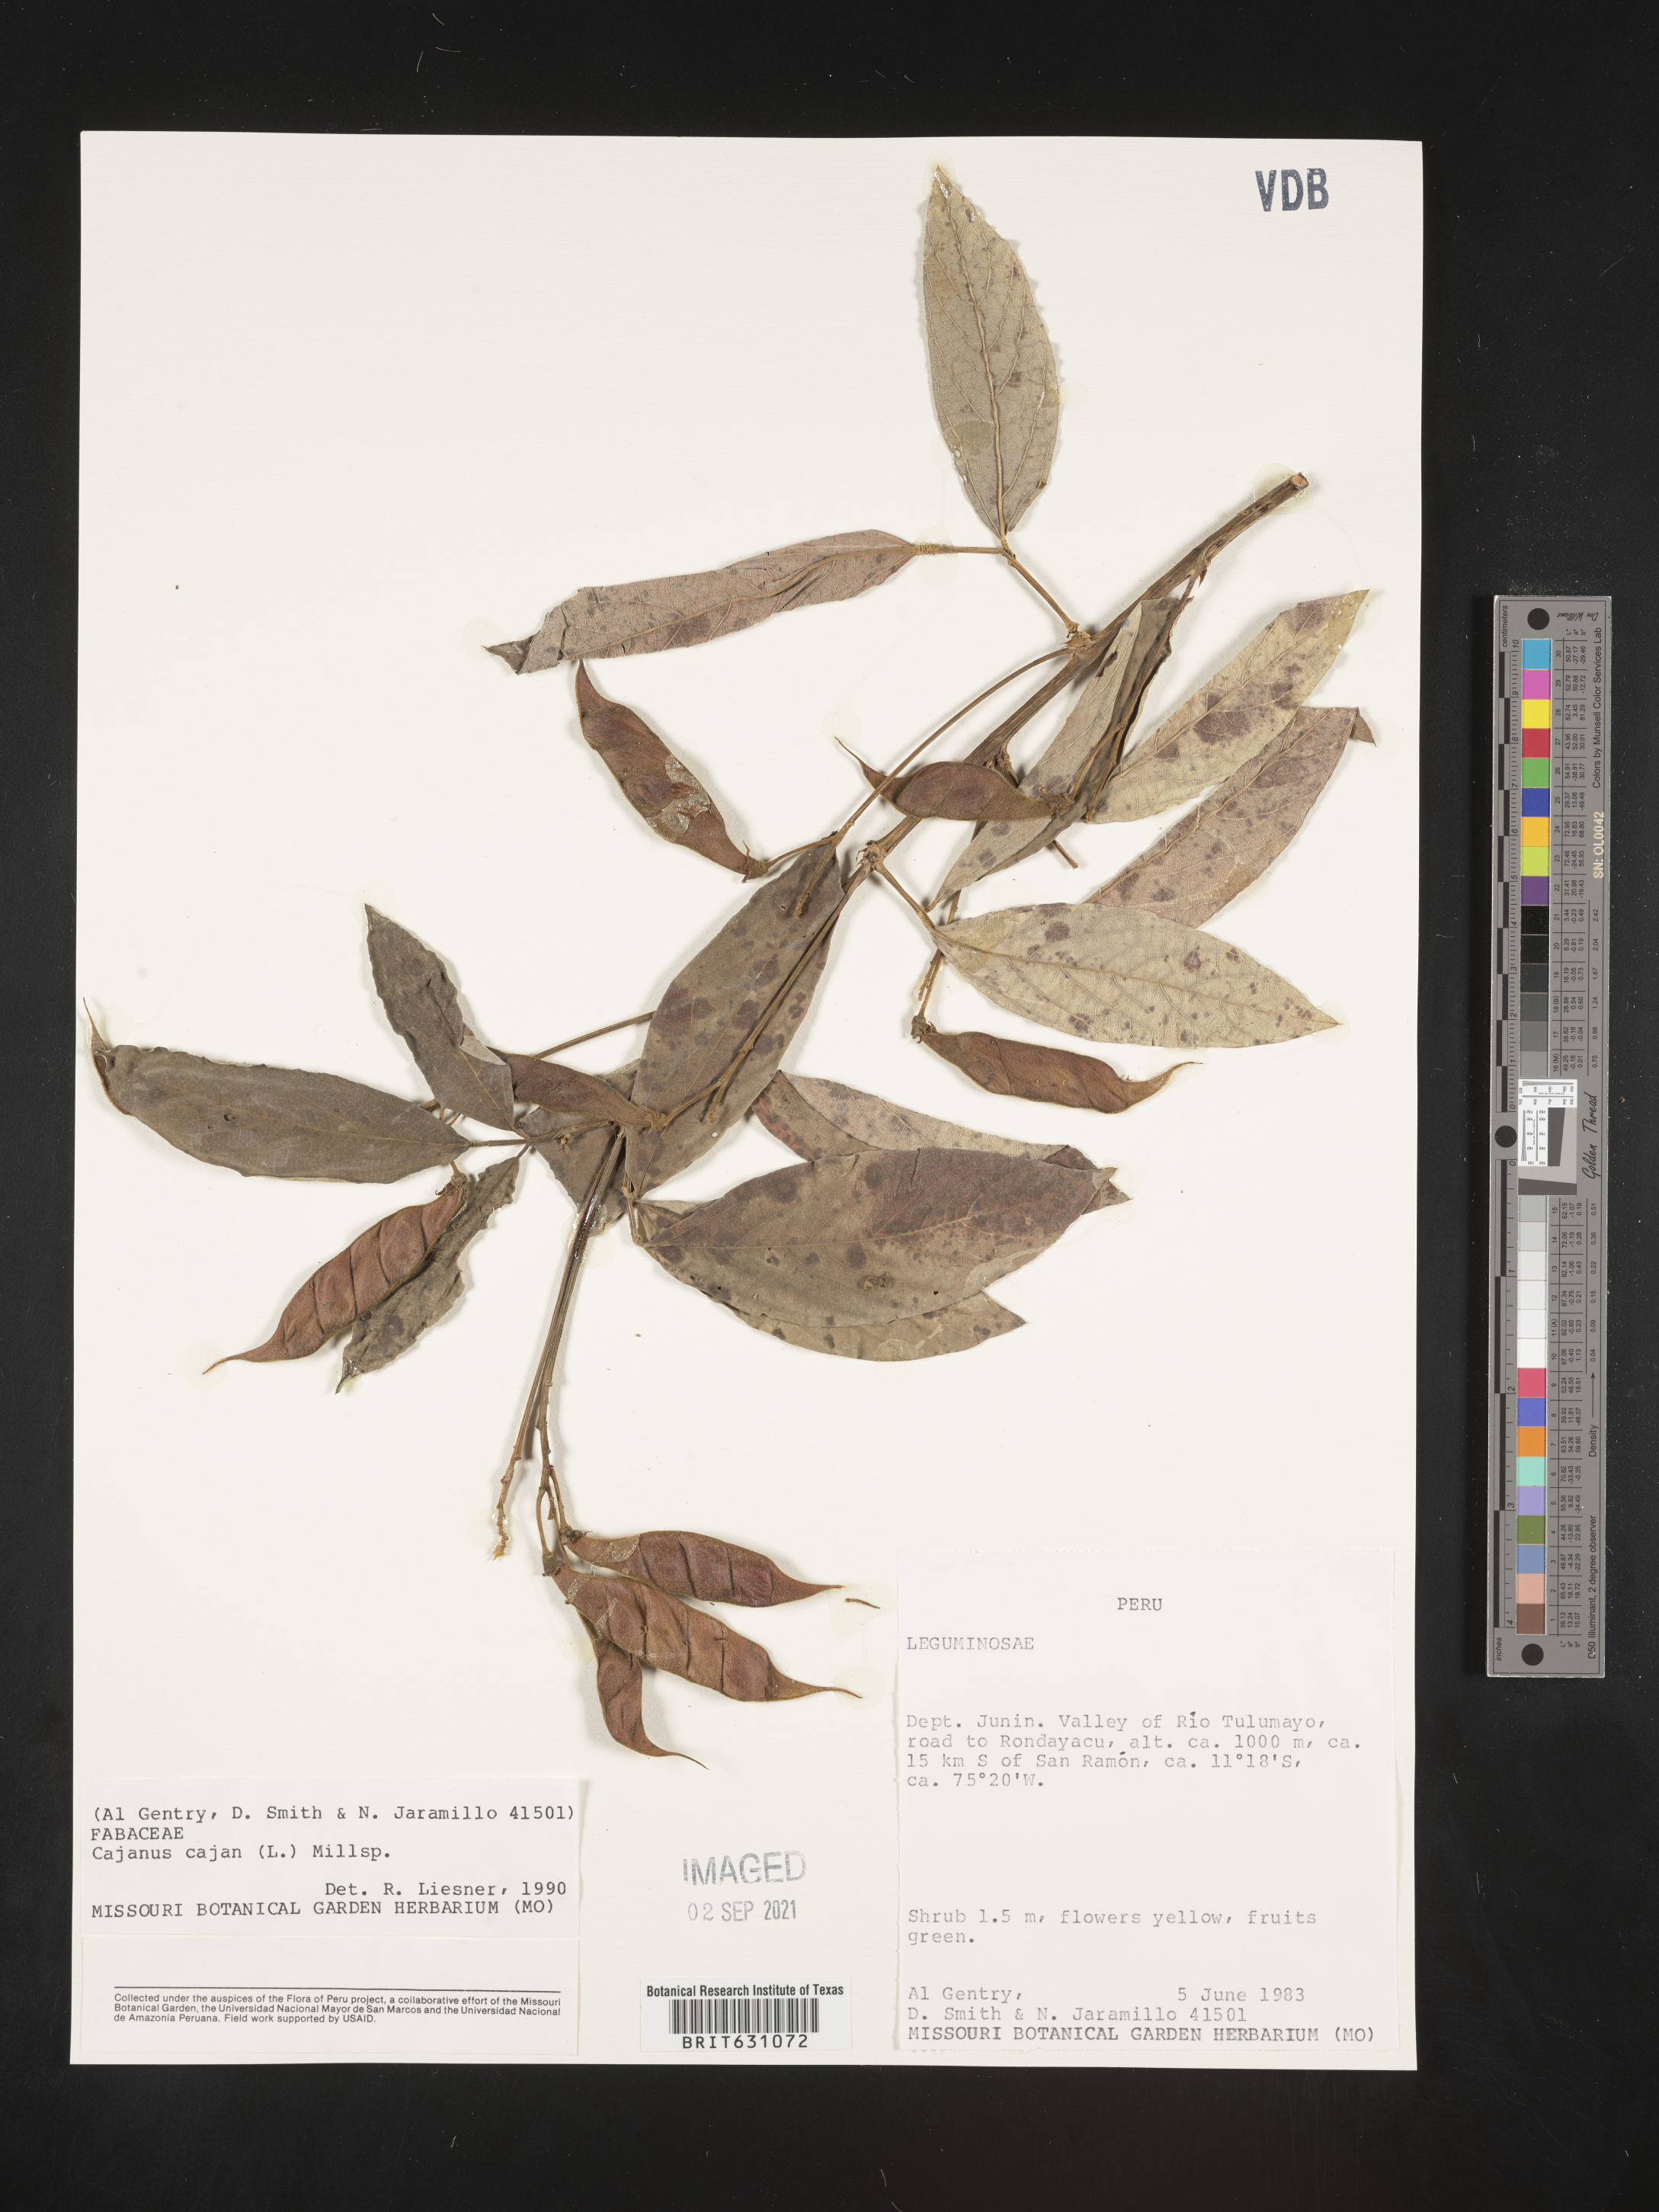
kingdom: Plantae
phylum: Tracheophyta
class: Magnoliopsida
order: Fabales
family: Fabaceae
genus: Cajanus
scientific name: Cajanus
